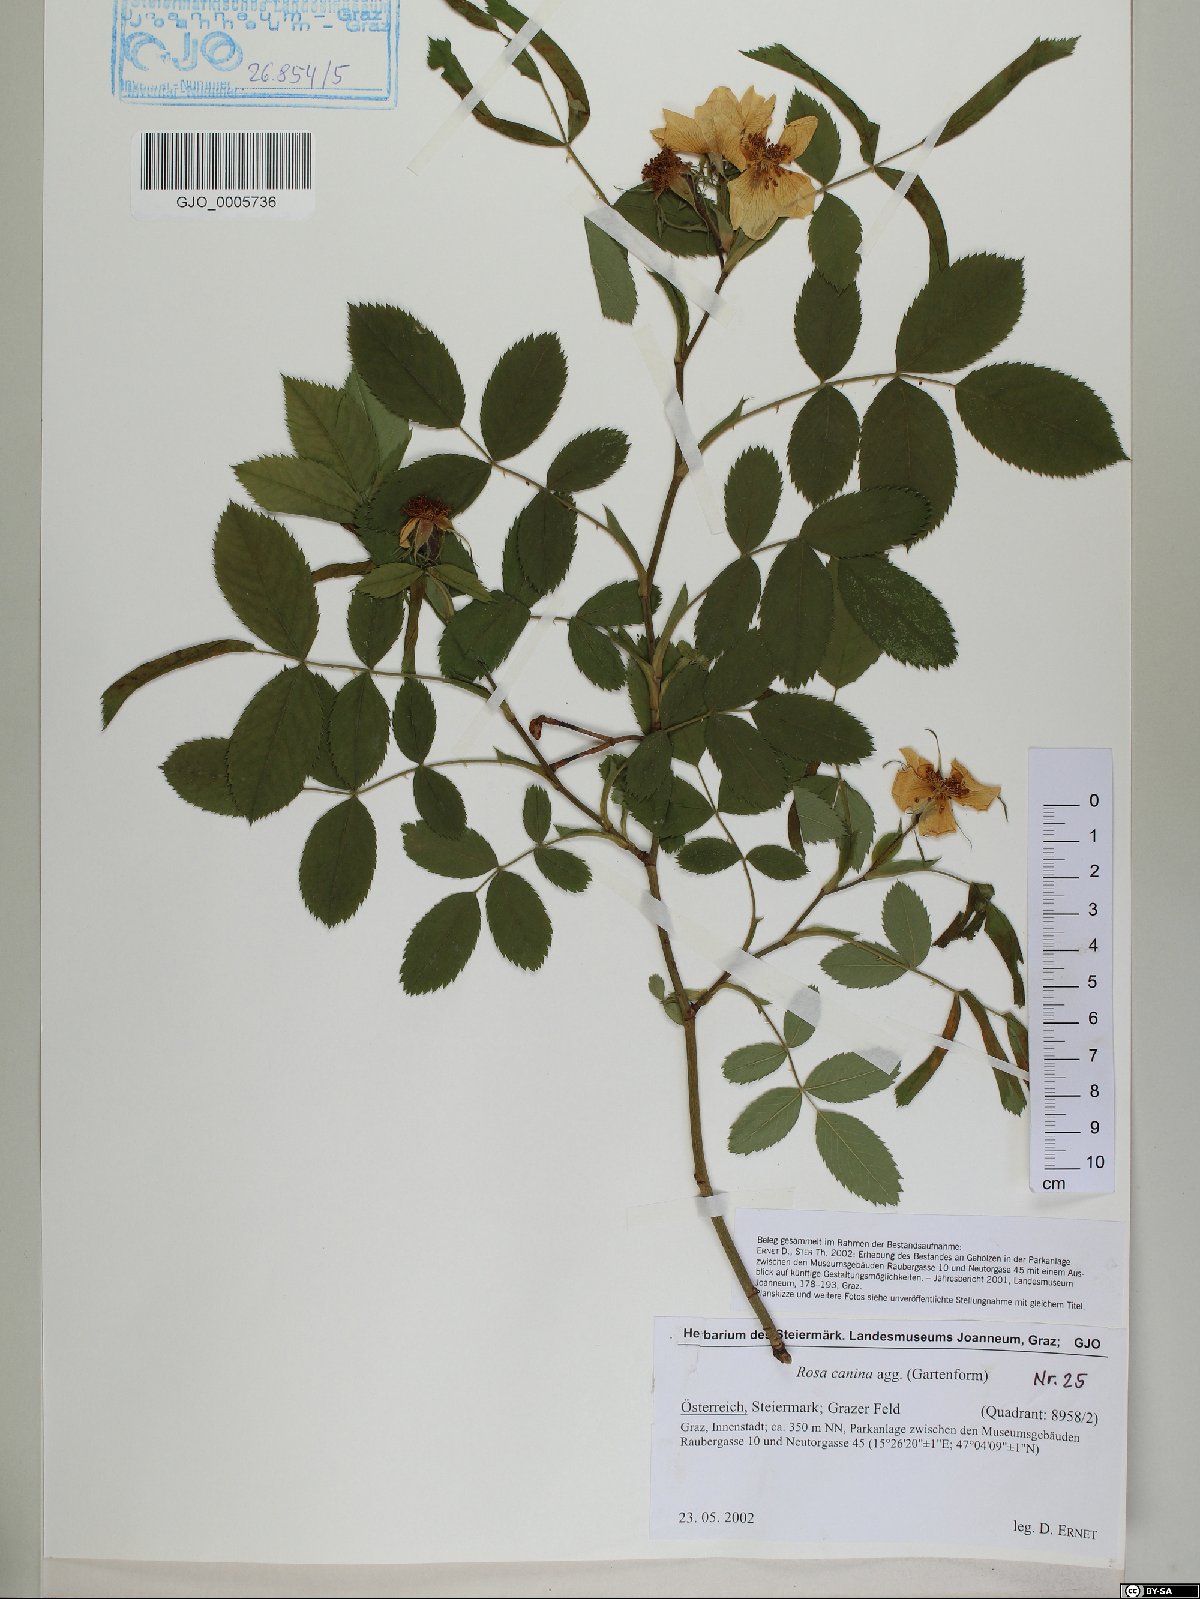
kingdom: Plantae
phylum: Tracheophyta
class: Magnoliopsida
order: Rosales
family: Rosaceae
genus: Rosa
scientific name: Rosa canina
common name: Dog rose
